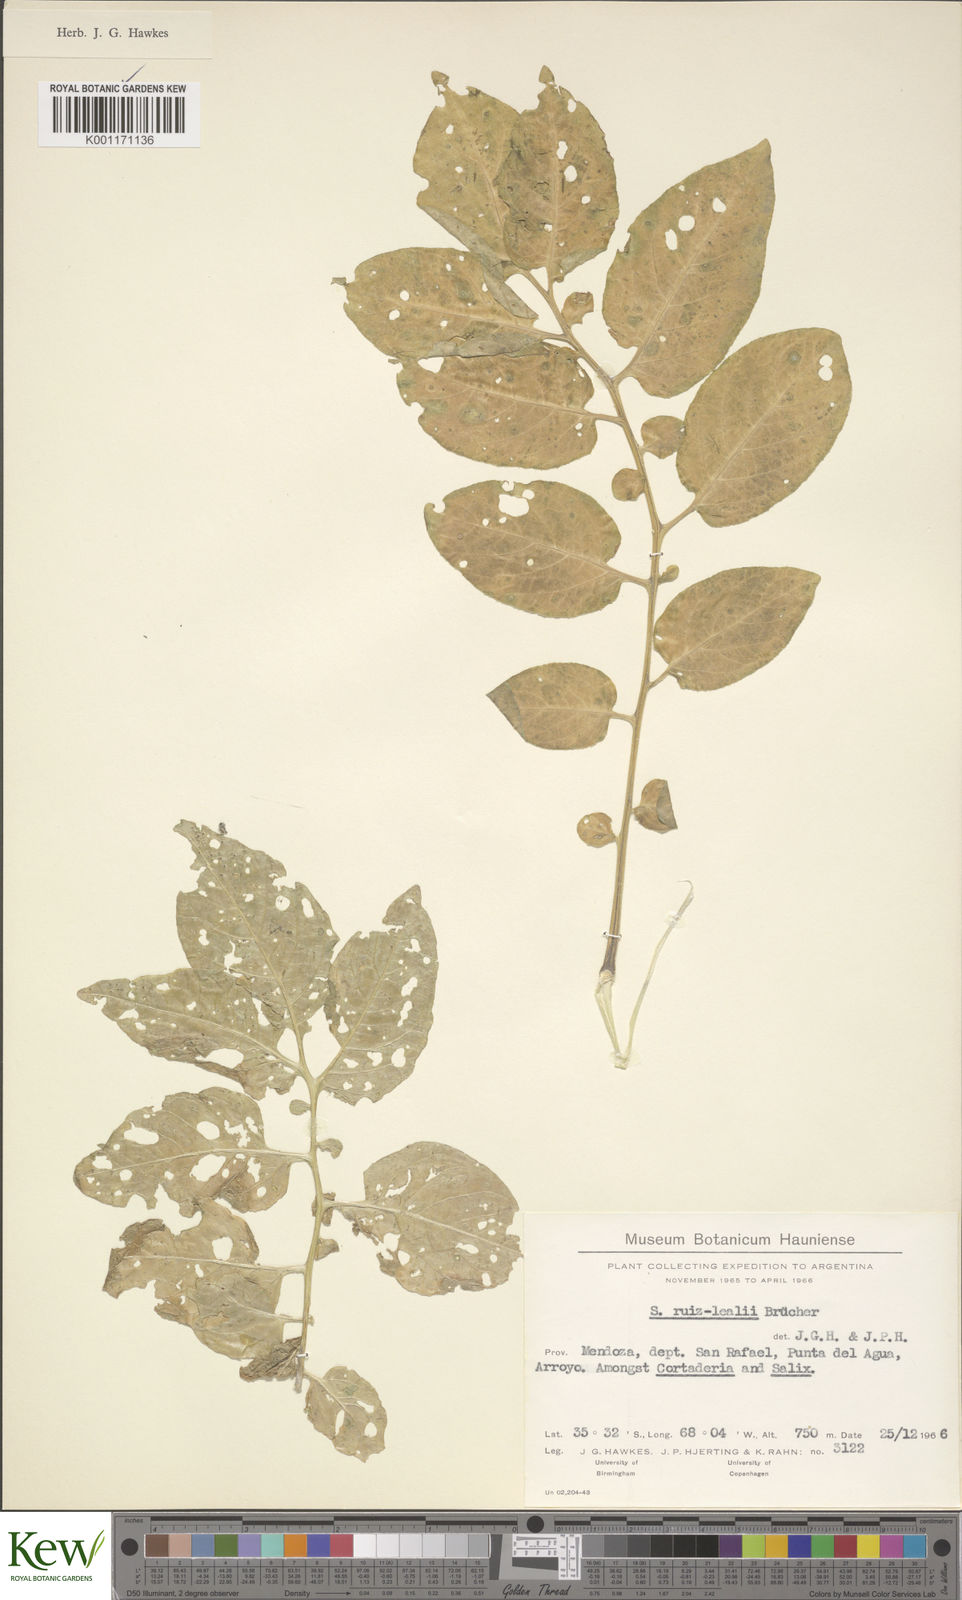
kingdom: Plantae
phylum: Tracheophyta
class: Magnoliopsida
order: Solanales
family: Solanaceae
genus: Solanum
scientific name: Solanum chacoense
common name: Chaco potato
